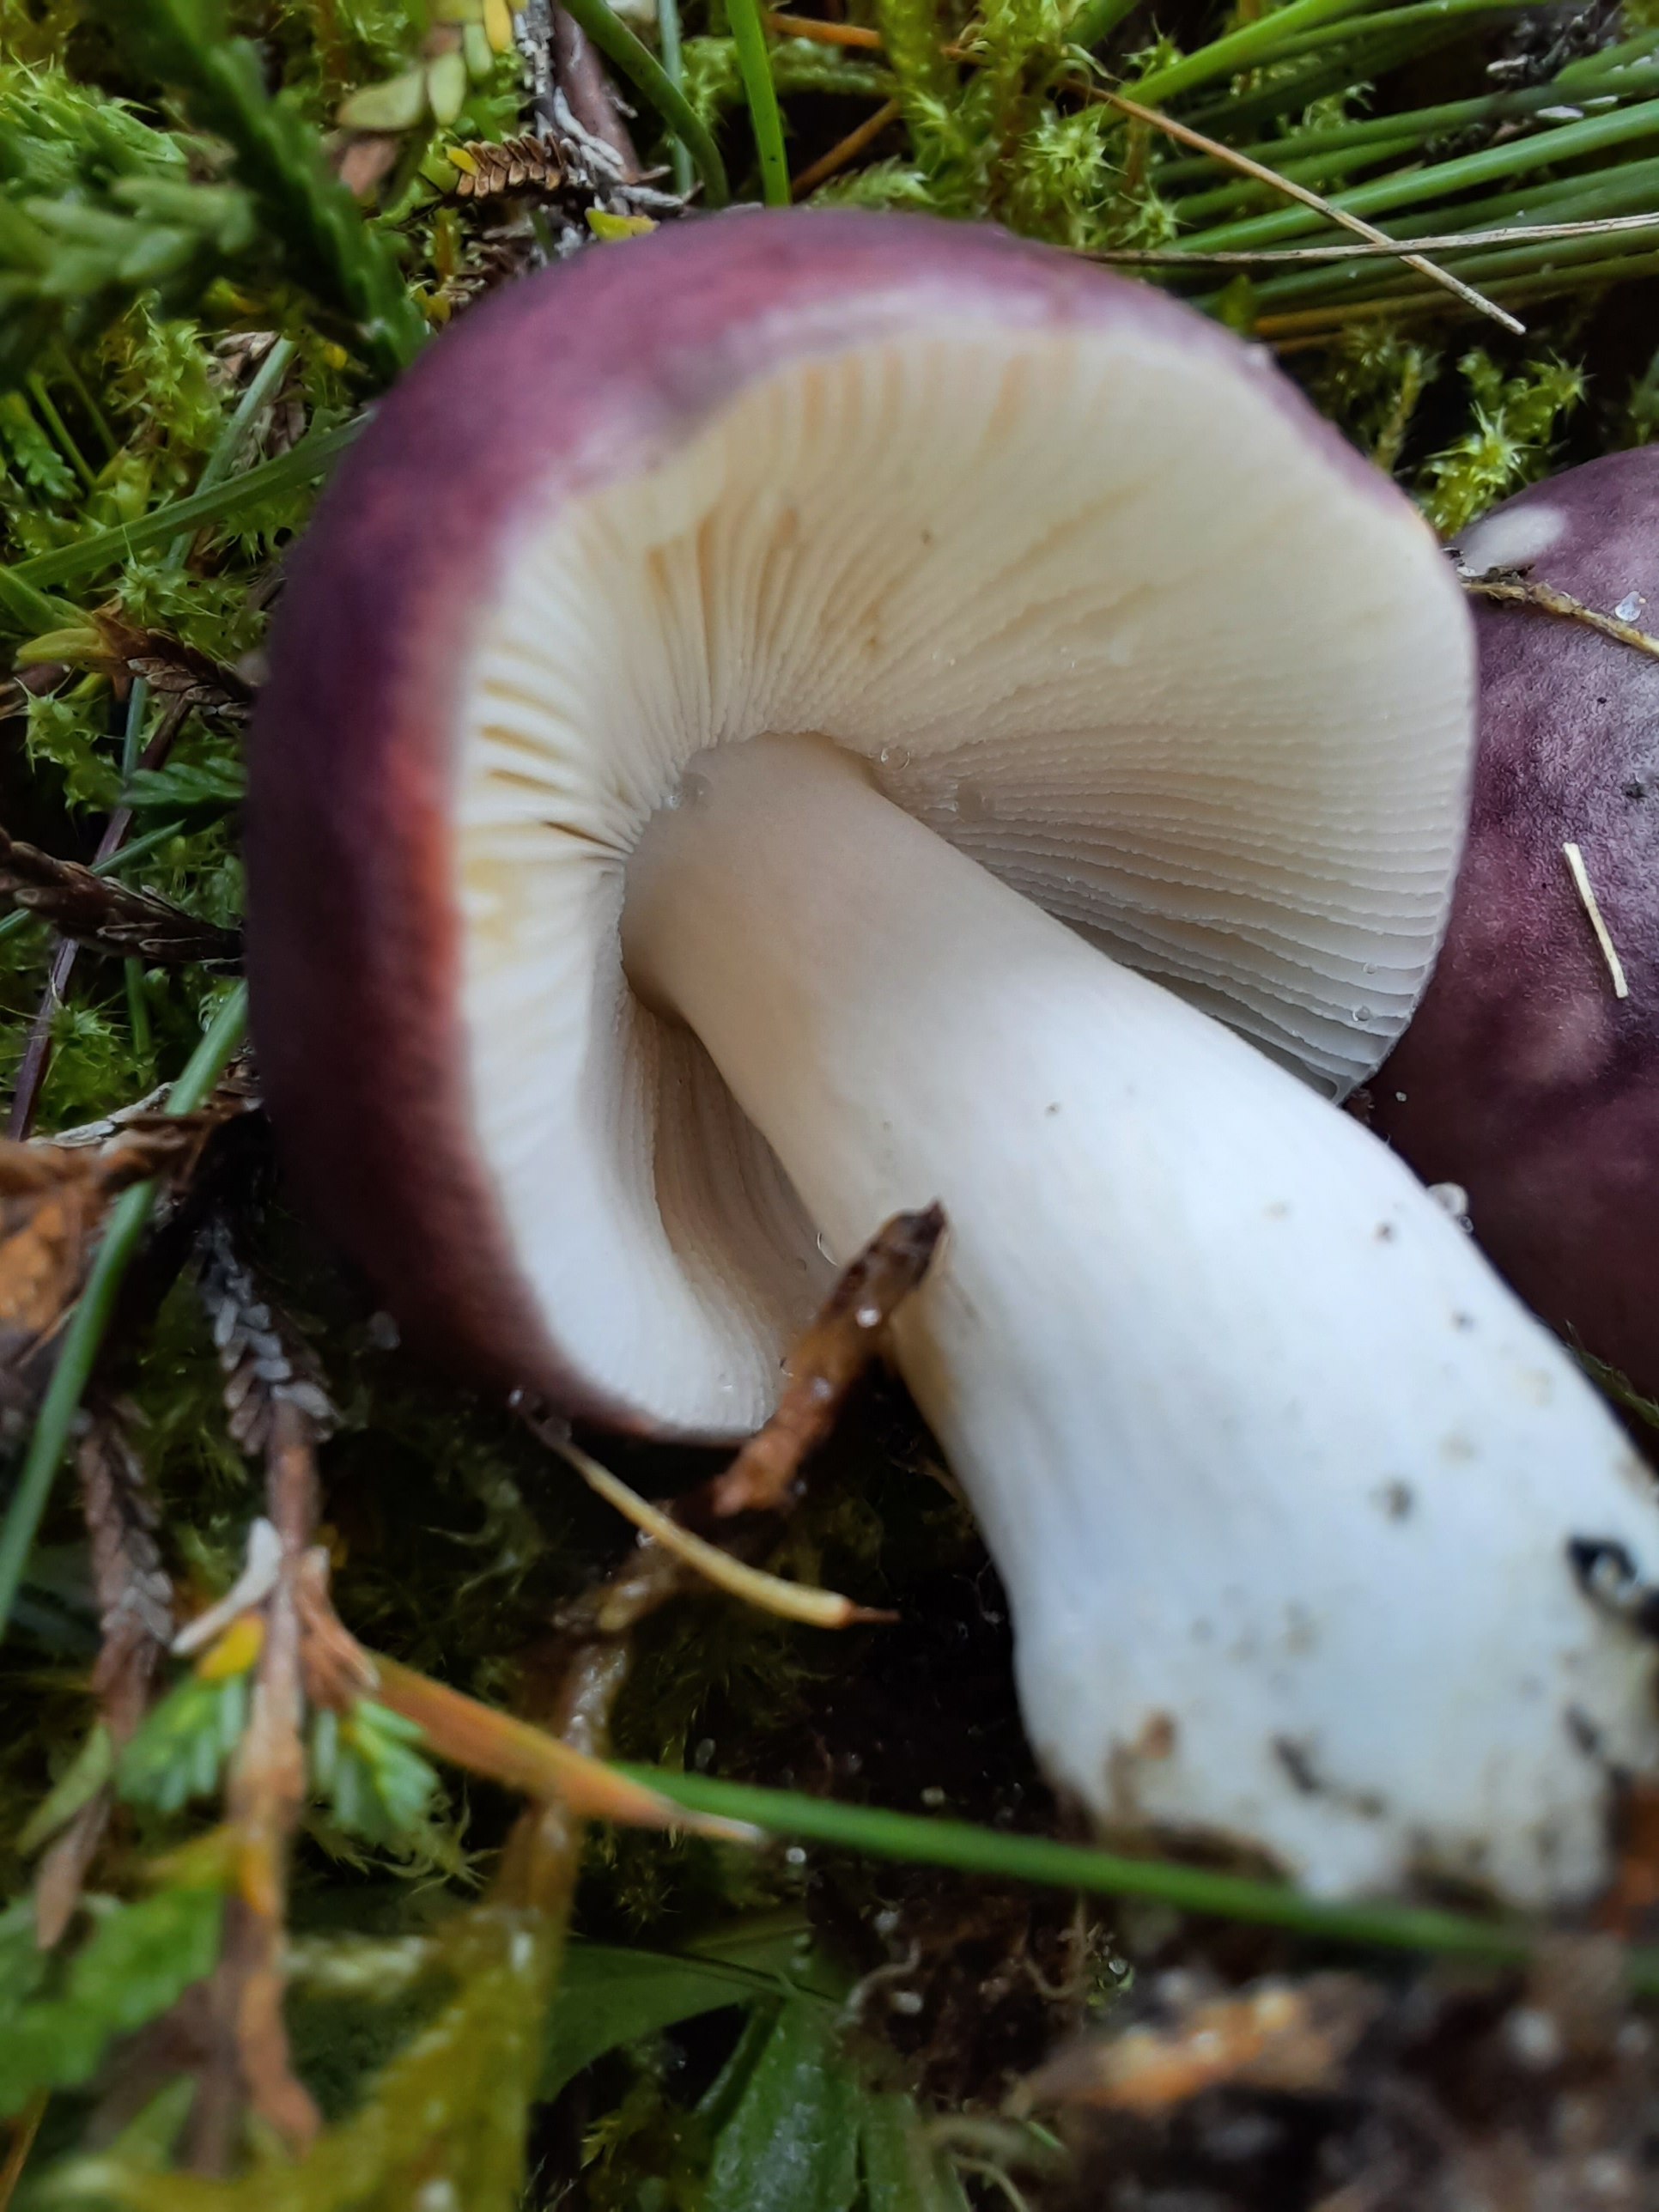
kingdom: Fungi
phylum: Basidiomycota
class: Agaricomycetes
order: Russulales
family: Russulaceae
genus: Russula
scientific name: Russula fragilis
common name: savbladet skørhat
